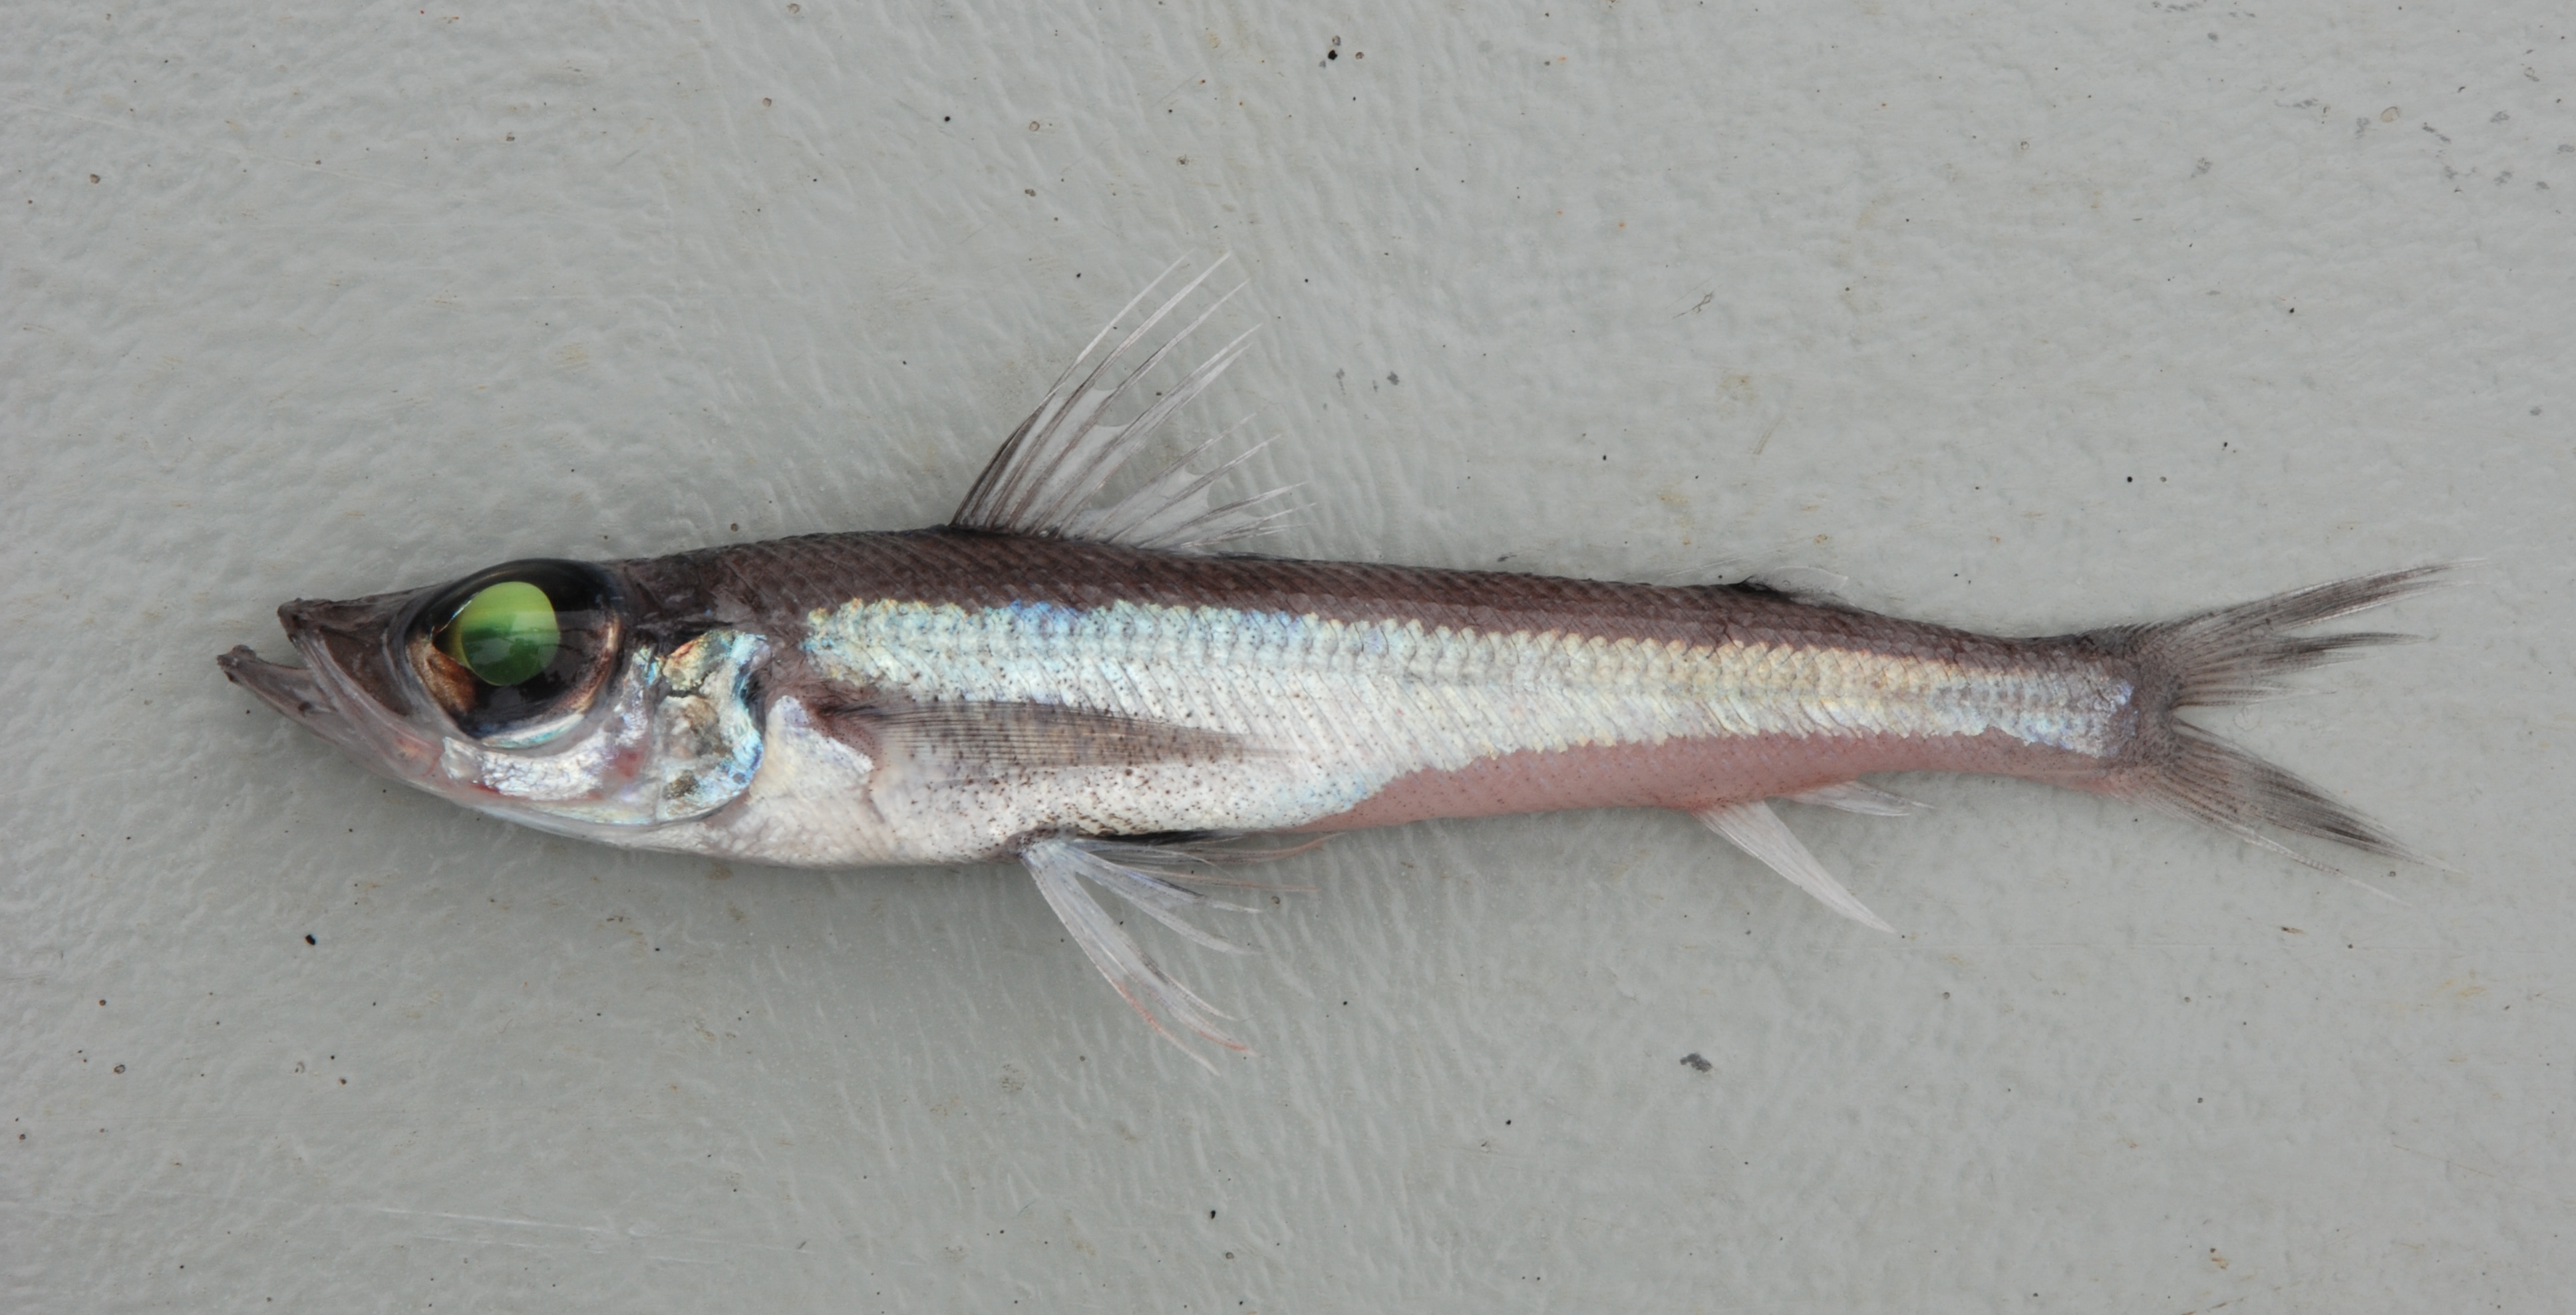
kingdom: Animalia
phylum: Chordata
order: Aulopiformes
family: Chlorophthalmidae
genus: Chlorophthalmus
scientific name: Chlorophthalmus agassizi
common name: Shortnose greeneye
